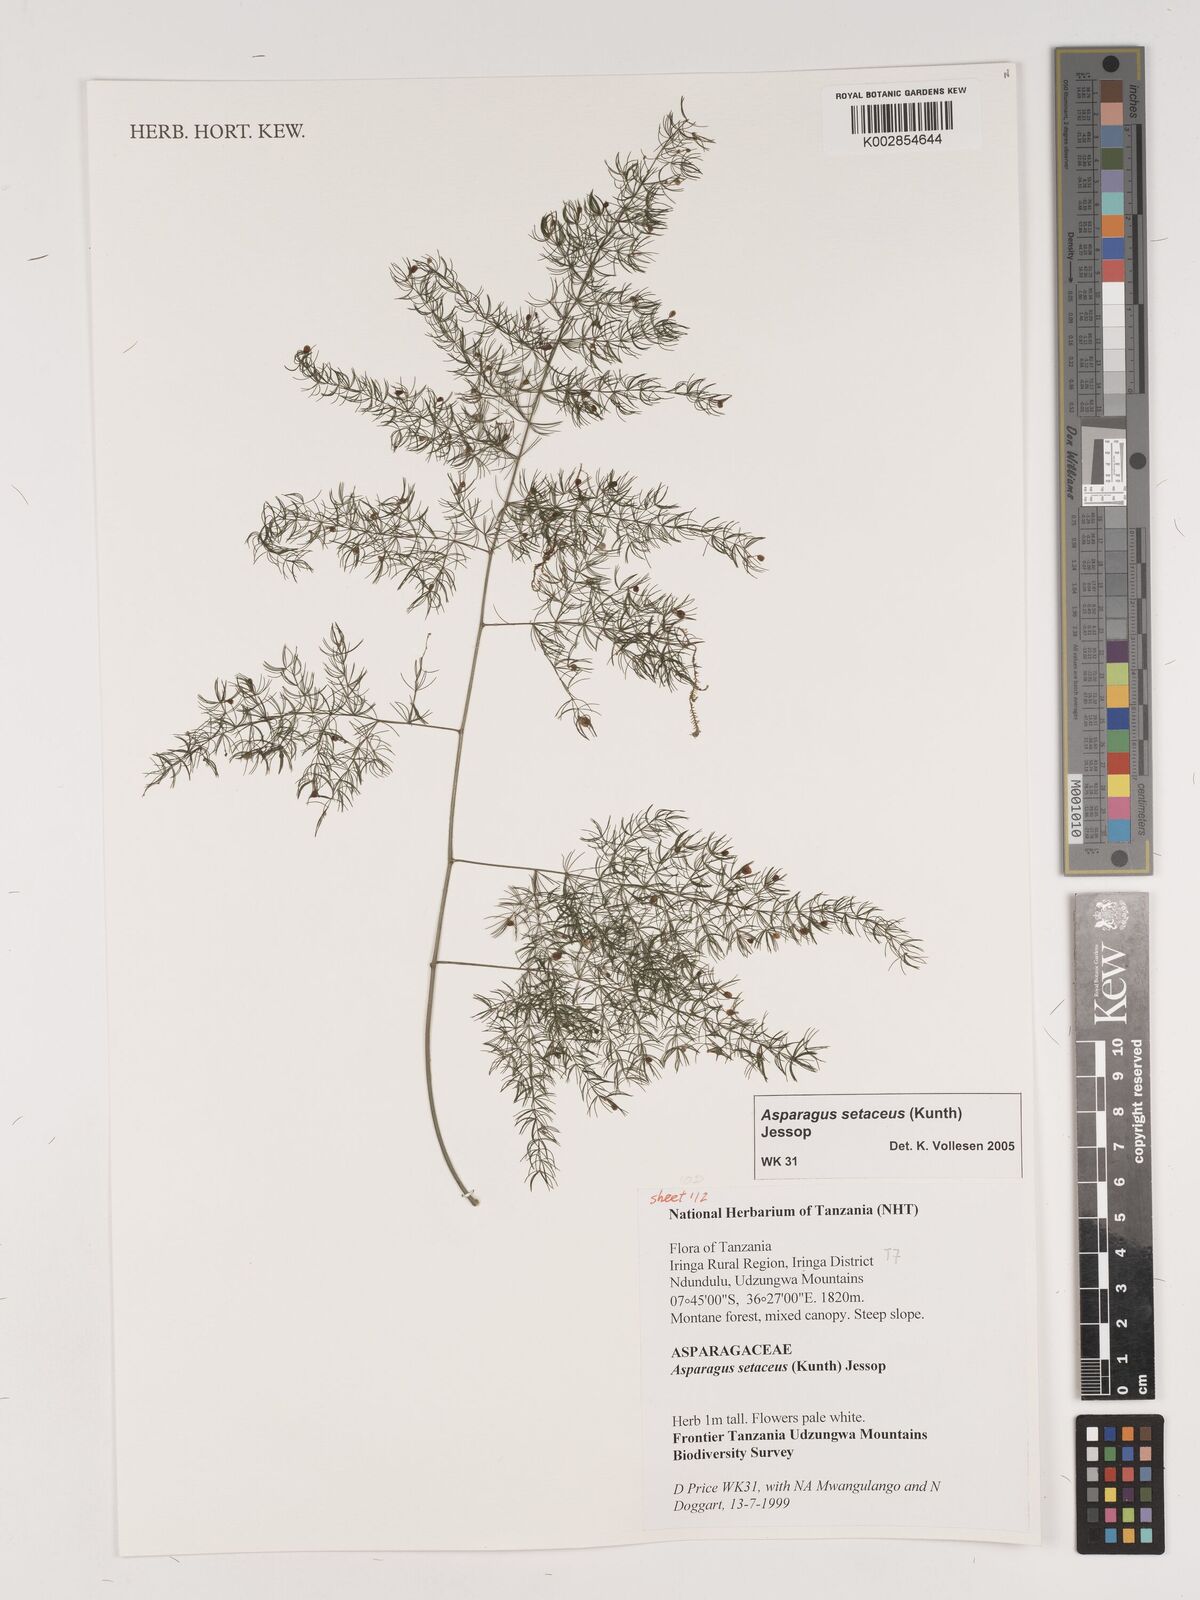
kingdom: Plantae
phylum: Tracheophyta
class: Liliopsida
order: Asparagales
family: Asparagaceae
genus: Asparagus
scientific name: Asparagus setaceus
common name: Common asparagus fern
